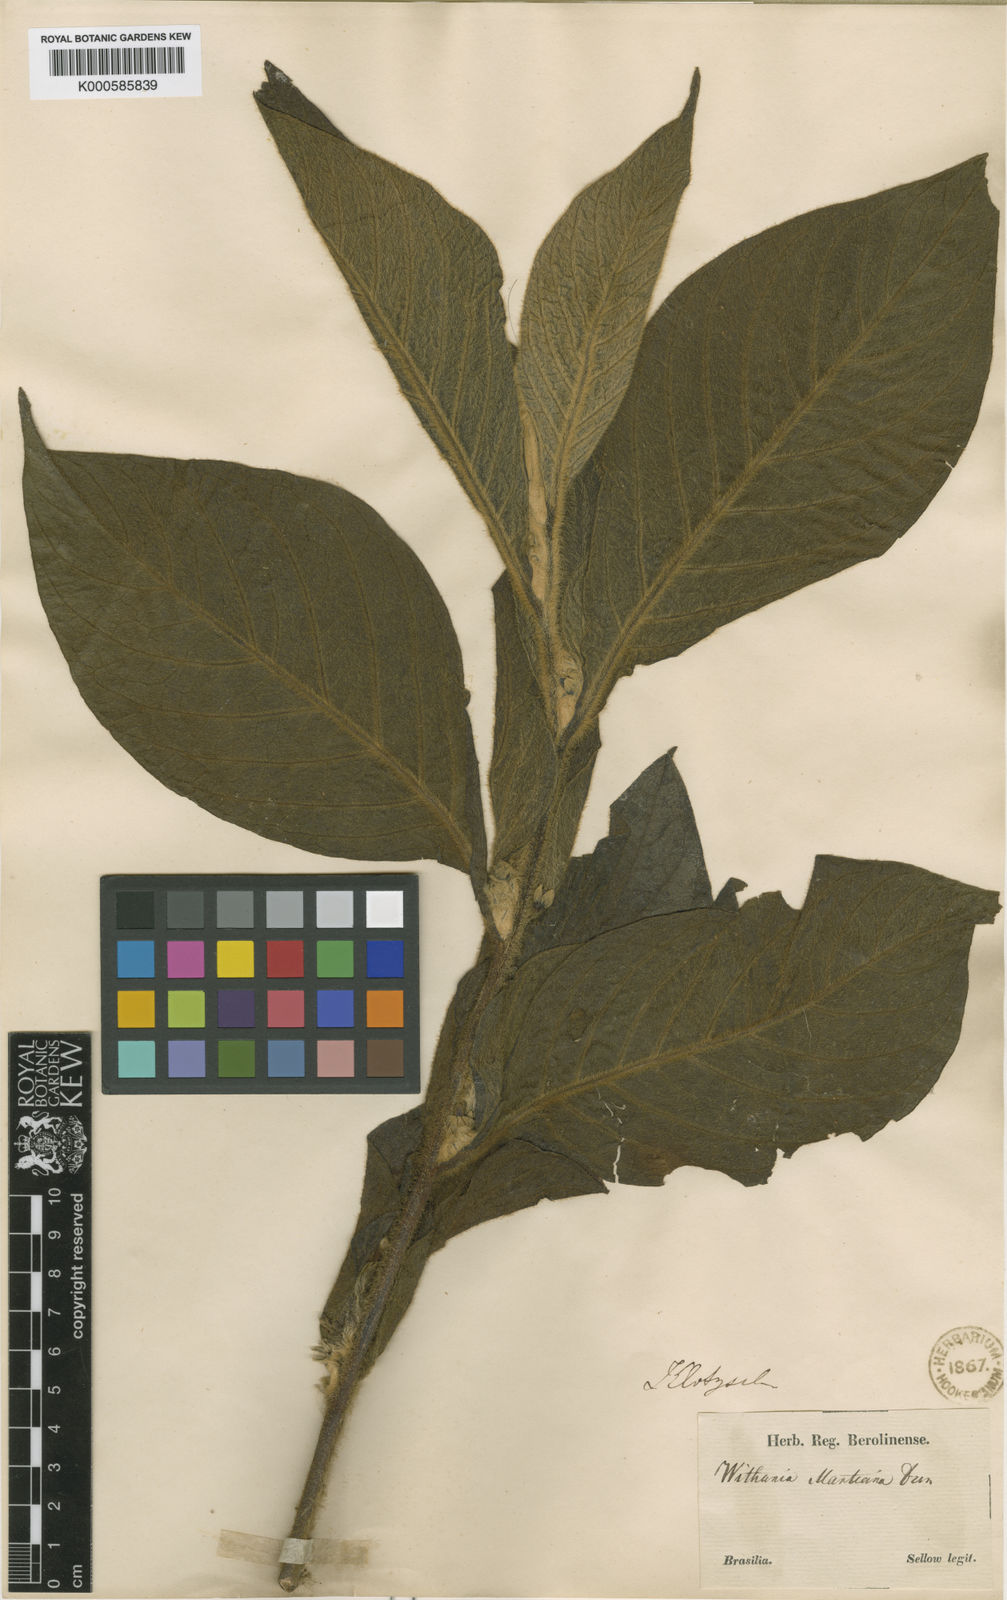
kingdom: Plantae
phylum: Tracheophyta
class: Magnoliopsida
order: Solanales
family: Solanaceae
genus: Athenaea
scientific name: Athenaea martiana
